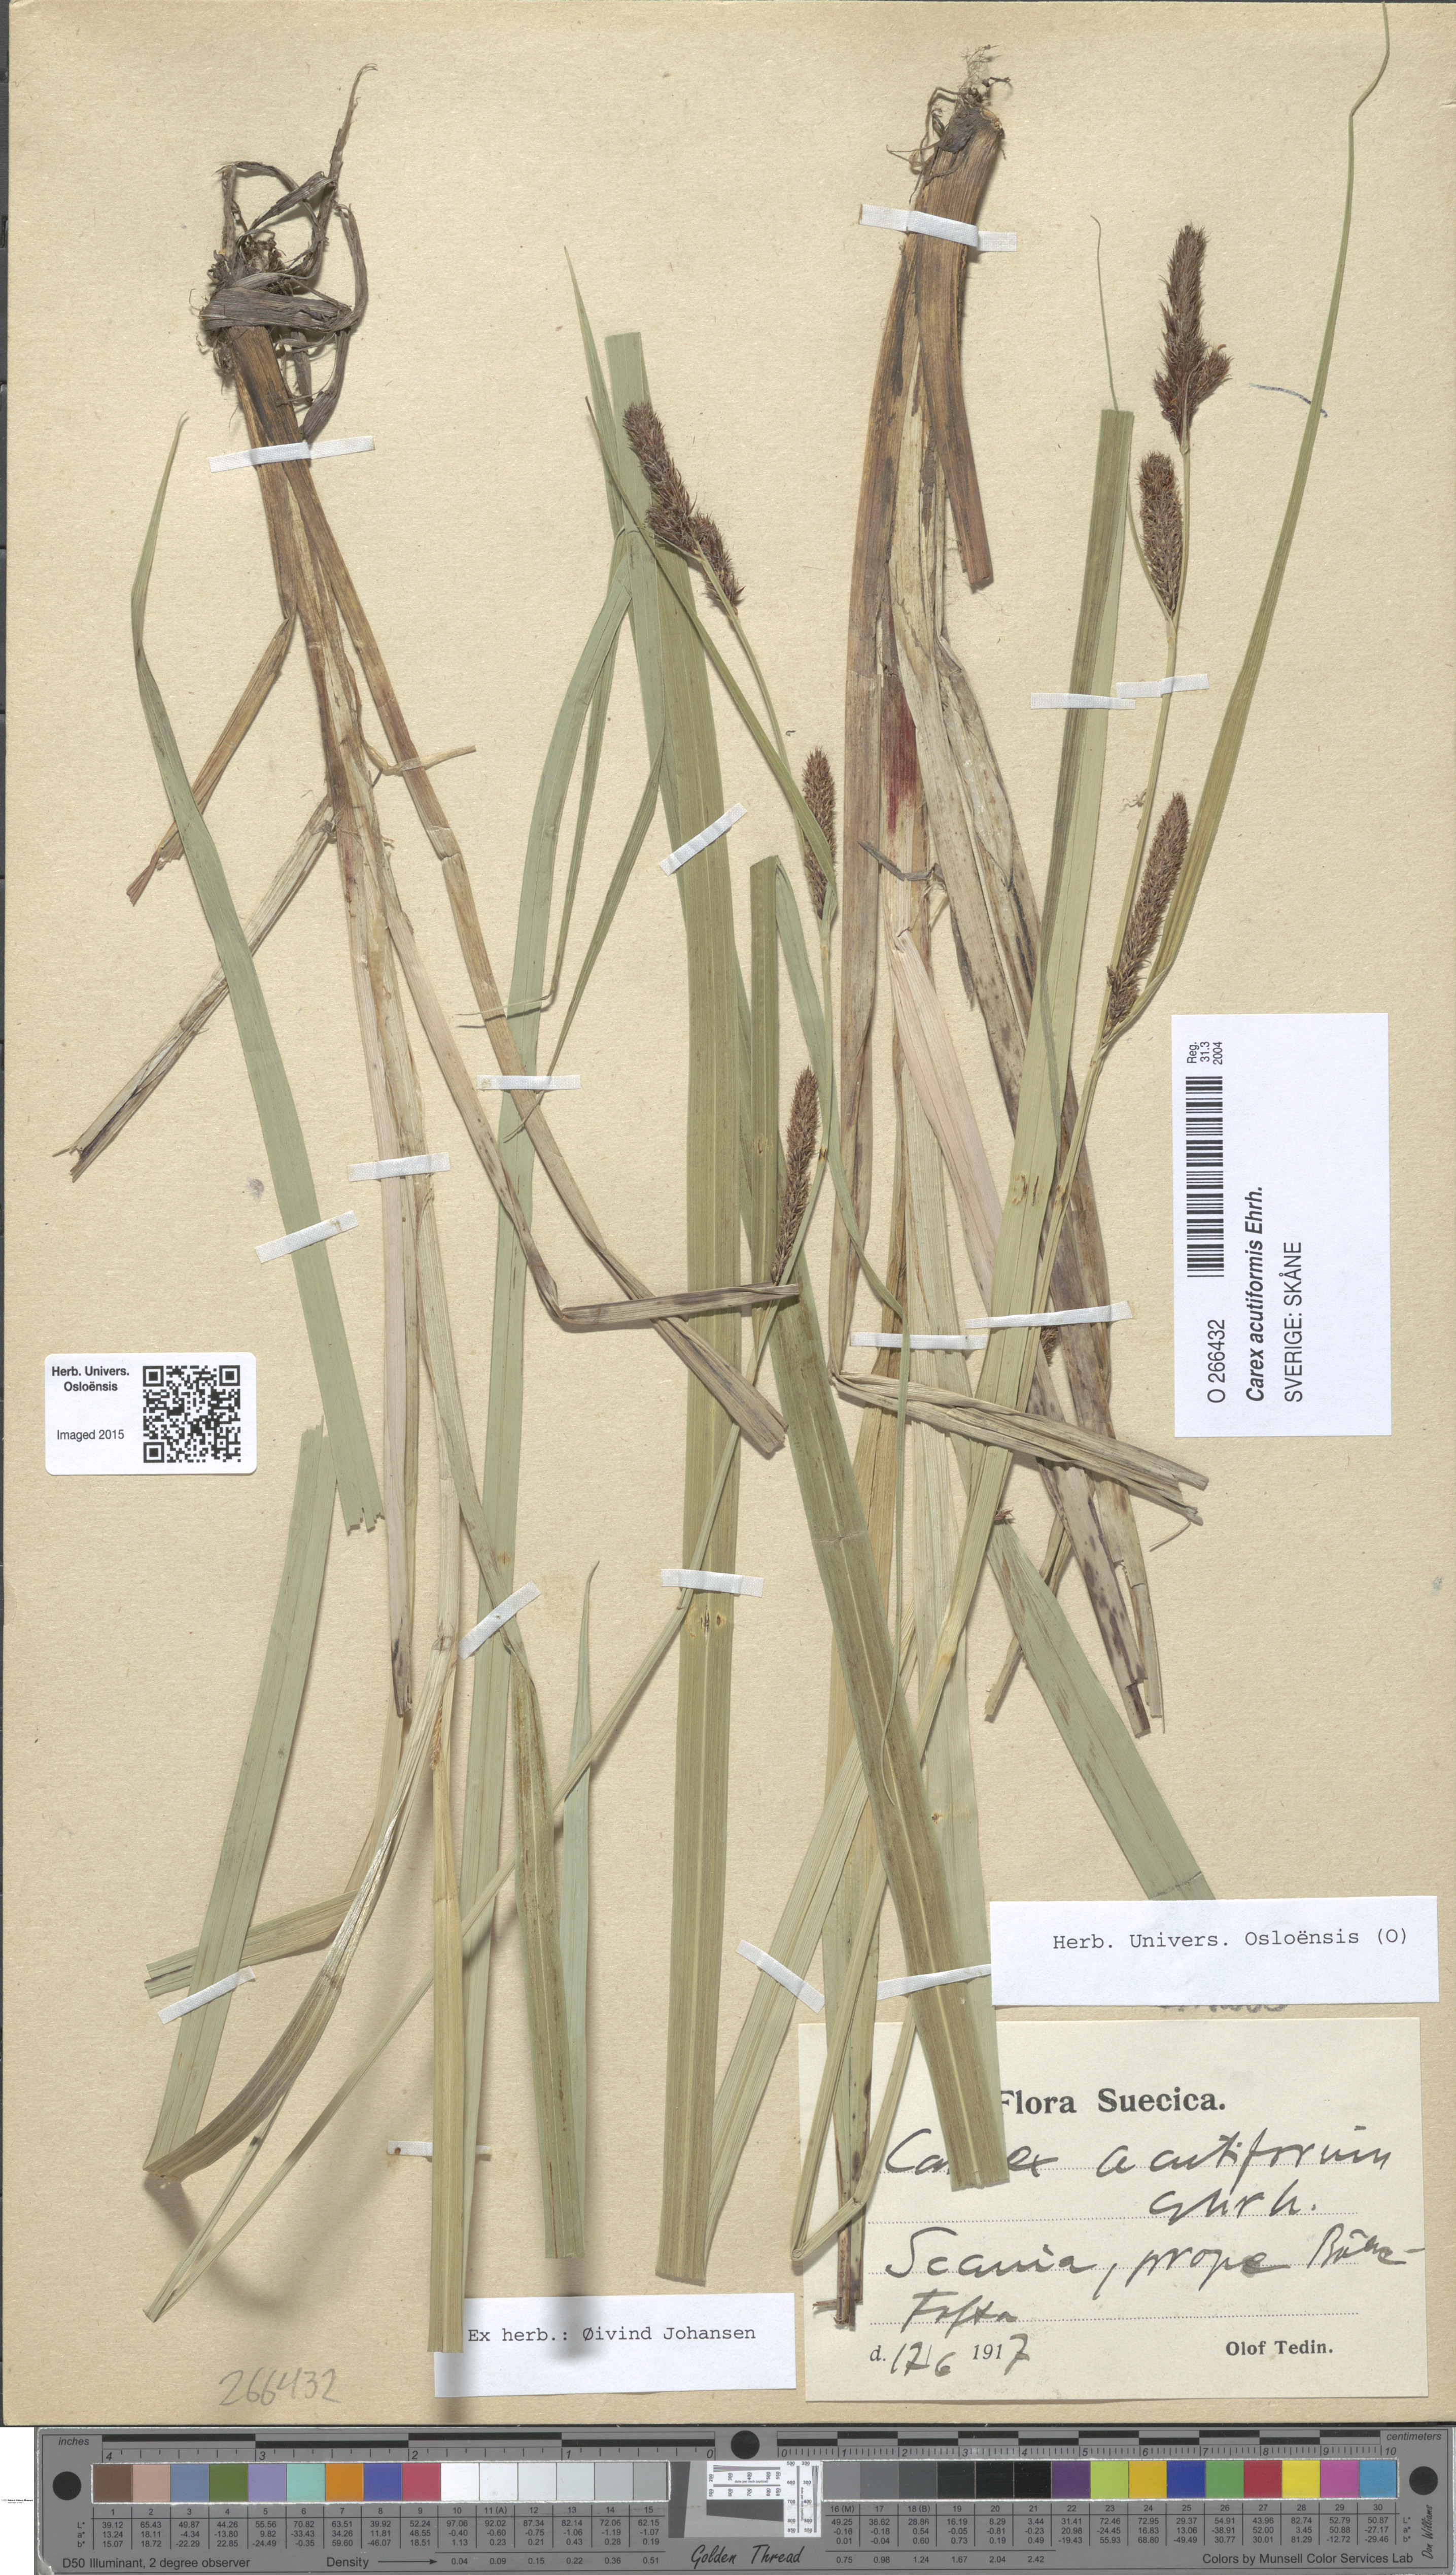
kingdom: Plantae
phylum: Tracheophyta
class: Liliopsida
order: Poales
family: Cyperaceae
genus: Carex
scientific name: Carex acutiformis
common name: Lesser pond-sedge
